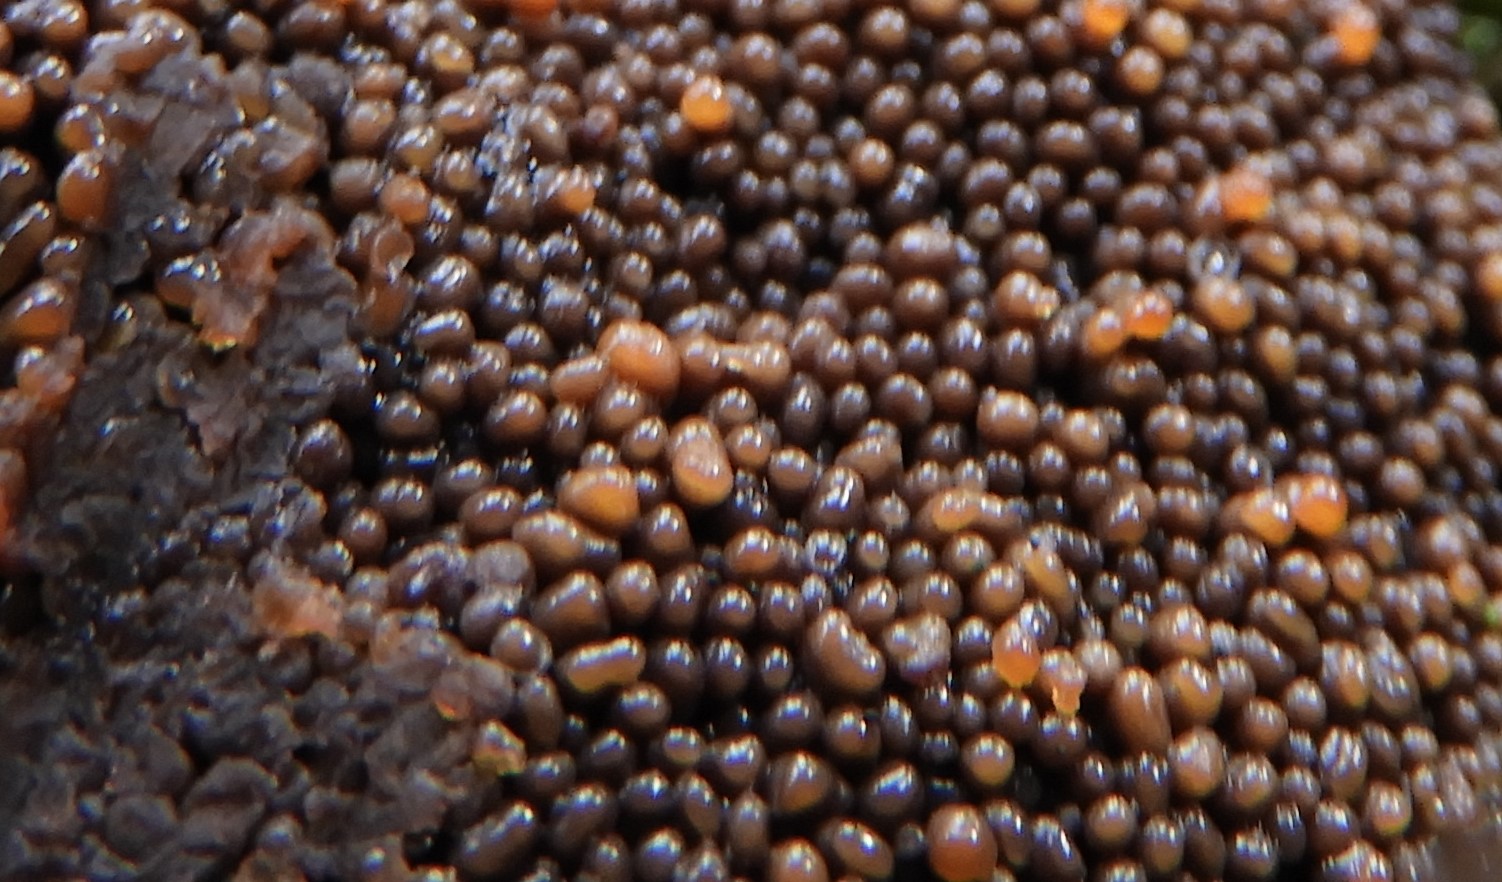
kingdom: Protozoa
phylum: Mycetozoa
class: Myxomycetes
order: Cribrariales
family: Tubiferaceae
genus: Tubifera
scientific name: Tubifera ferruginosa
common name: kanel-støvrør
